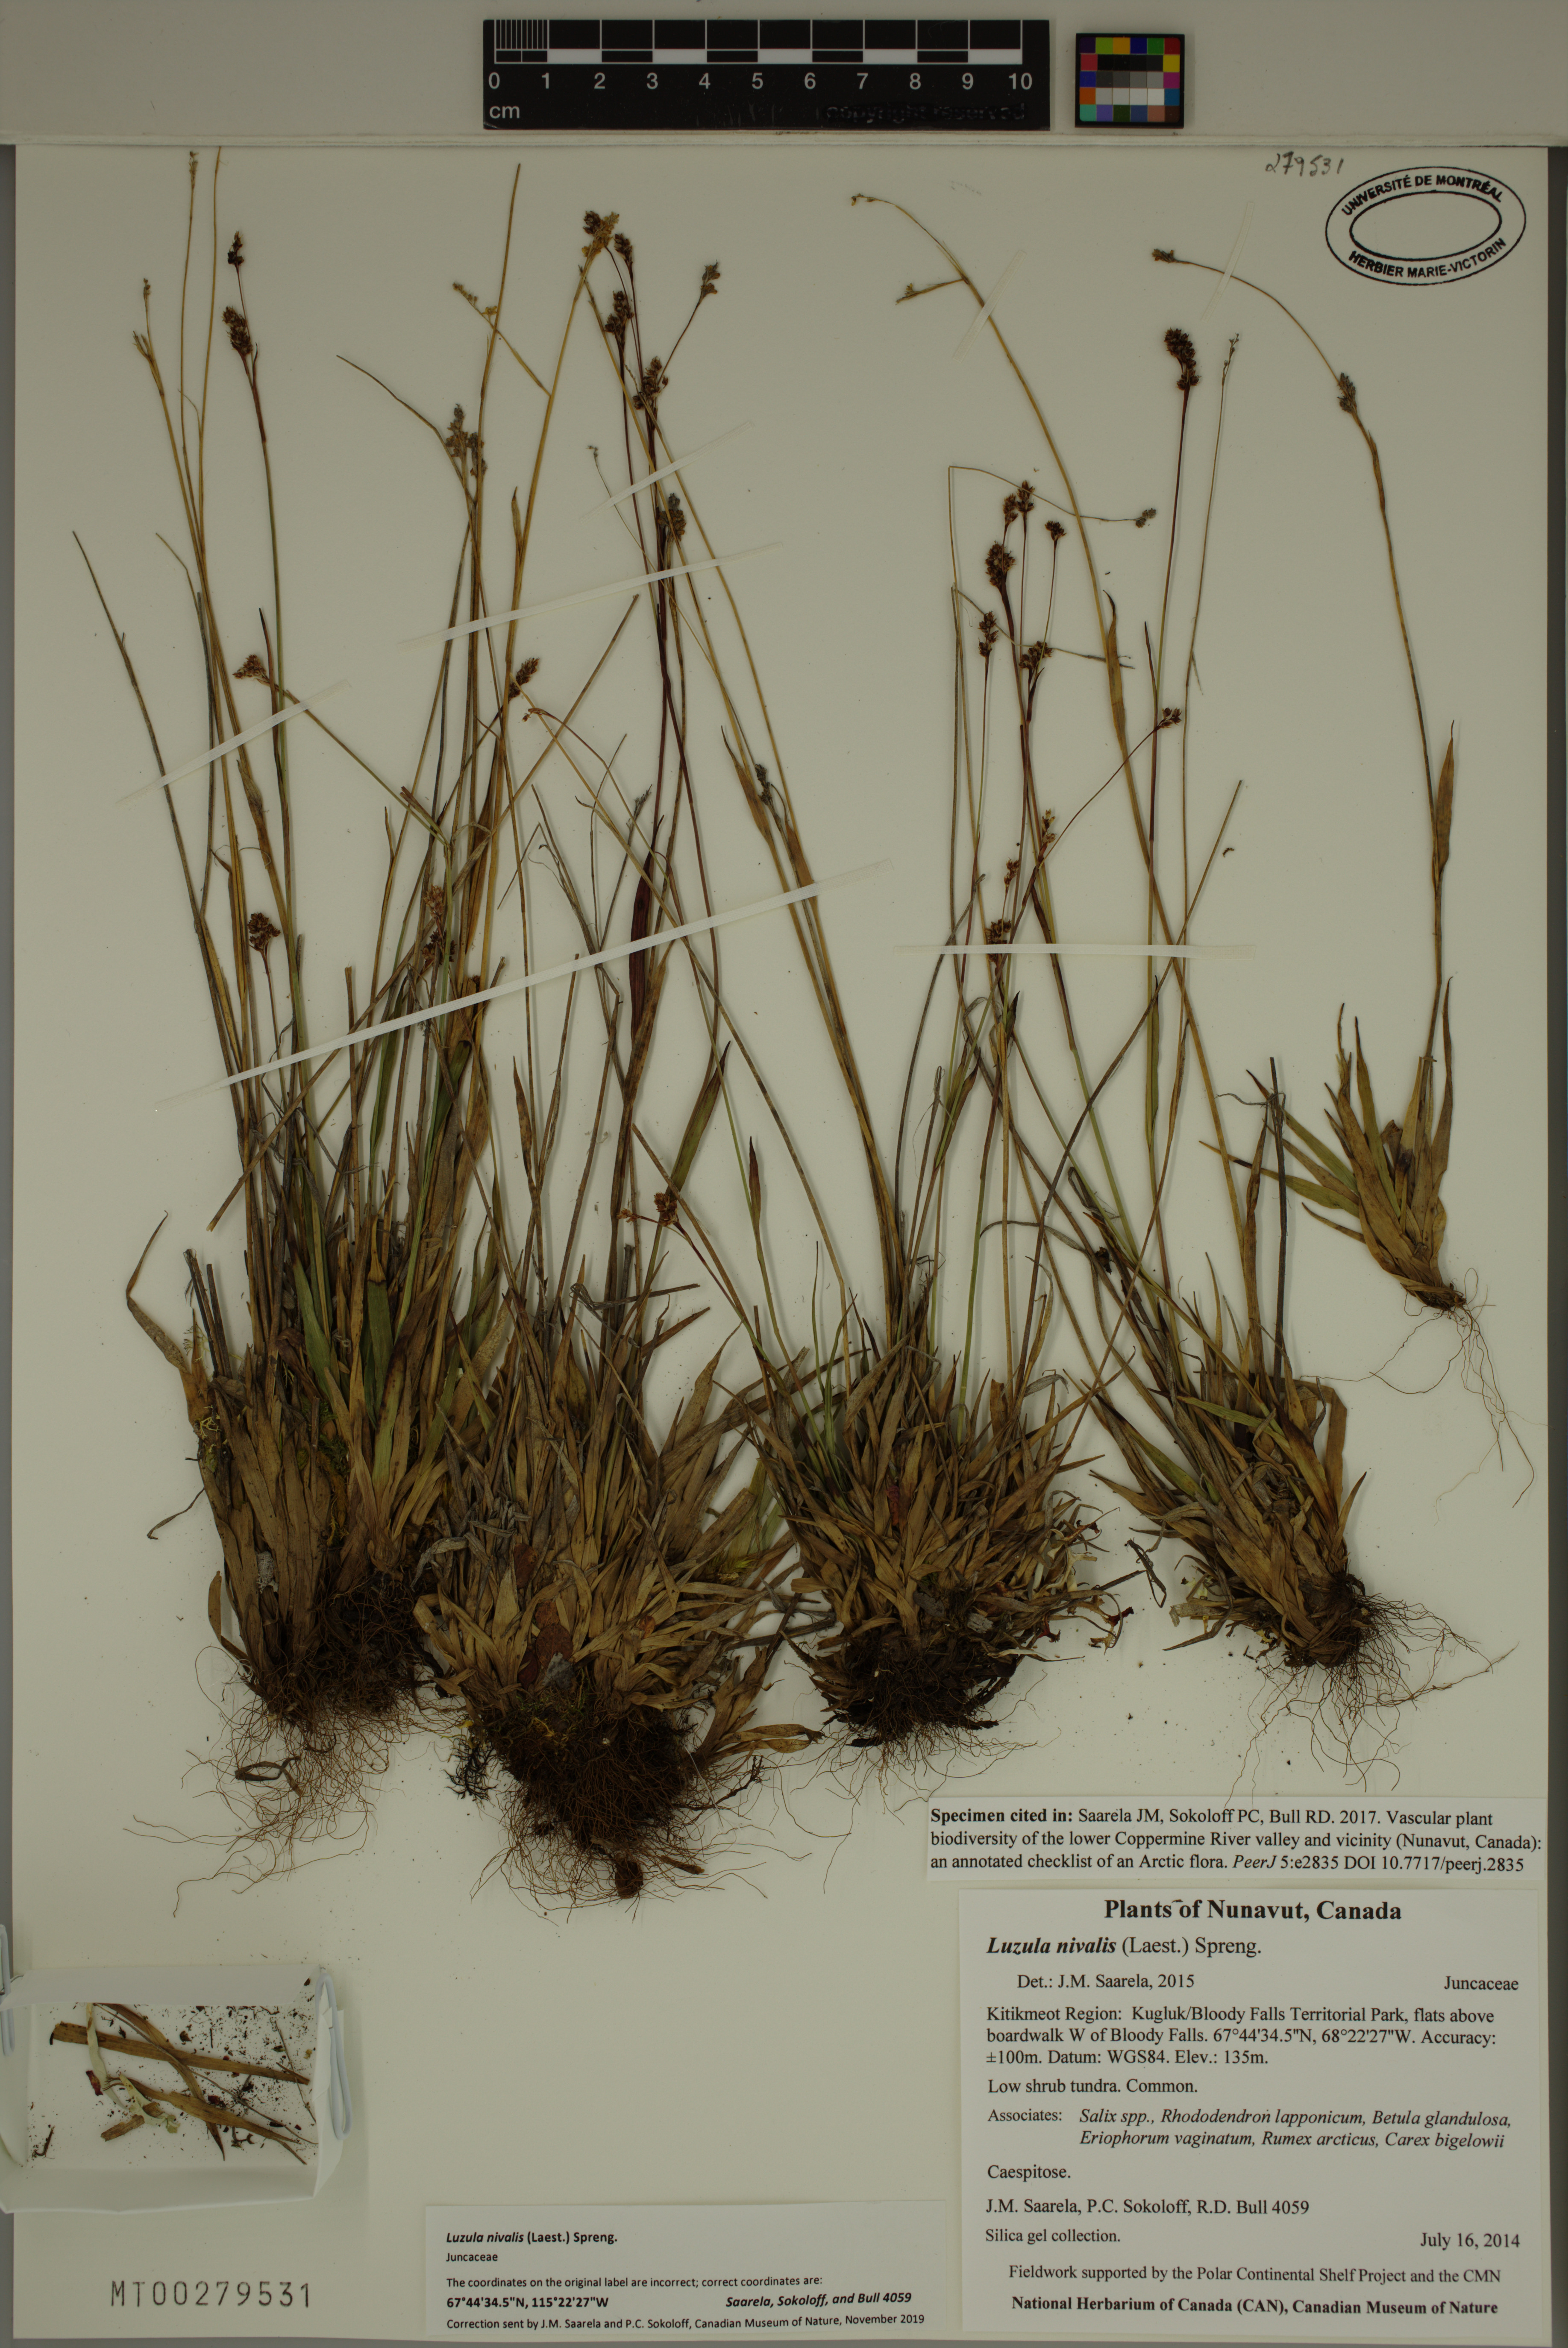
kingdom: Plantae
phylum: Tracheophyta
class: Liliopsida
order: Poales
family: Juncaceae
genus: Luzula
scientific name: Luzula nivalis
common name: Arctic woodrush
